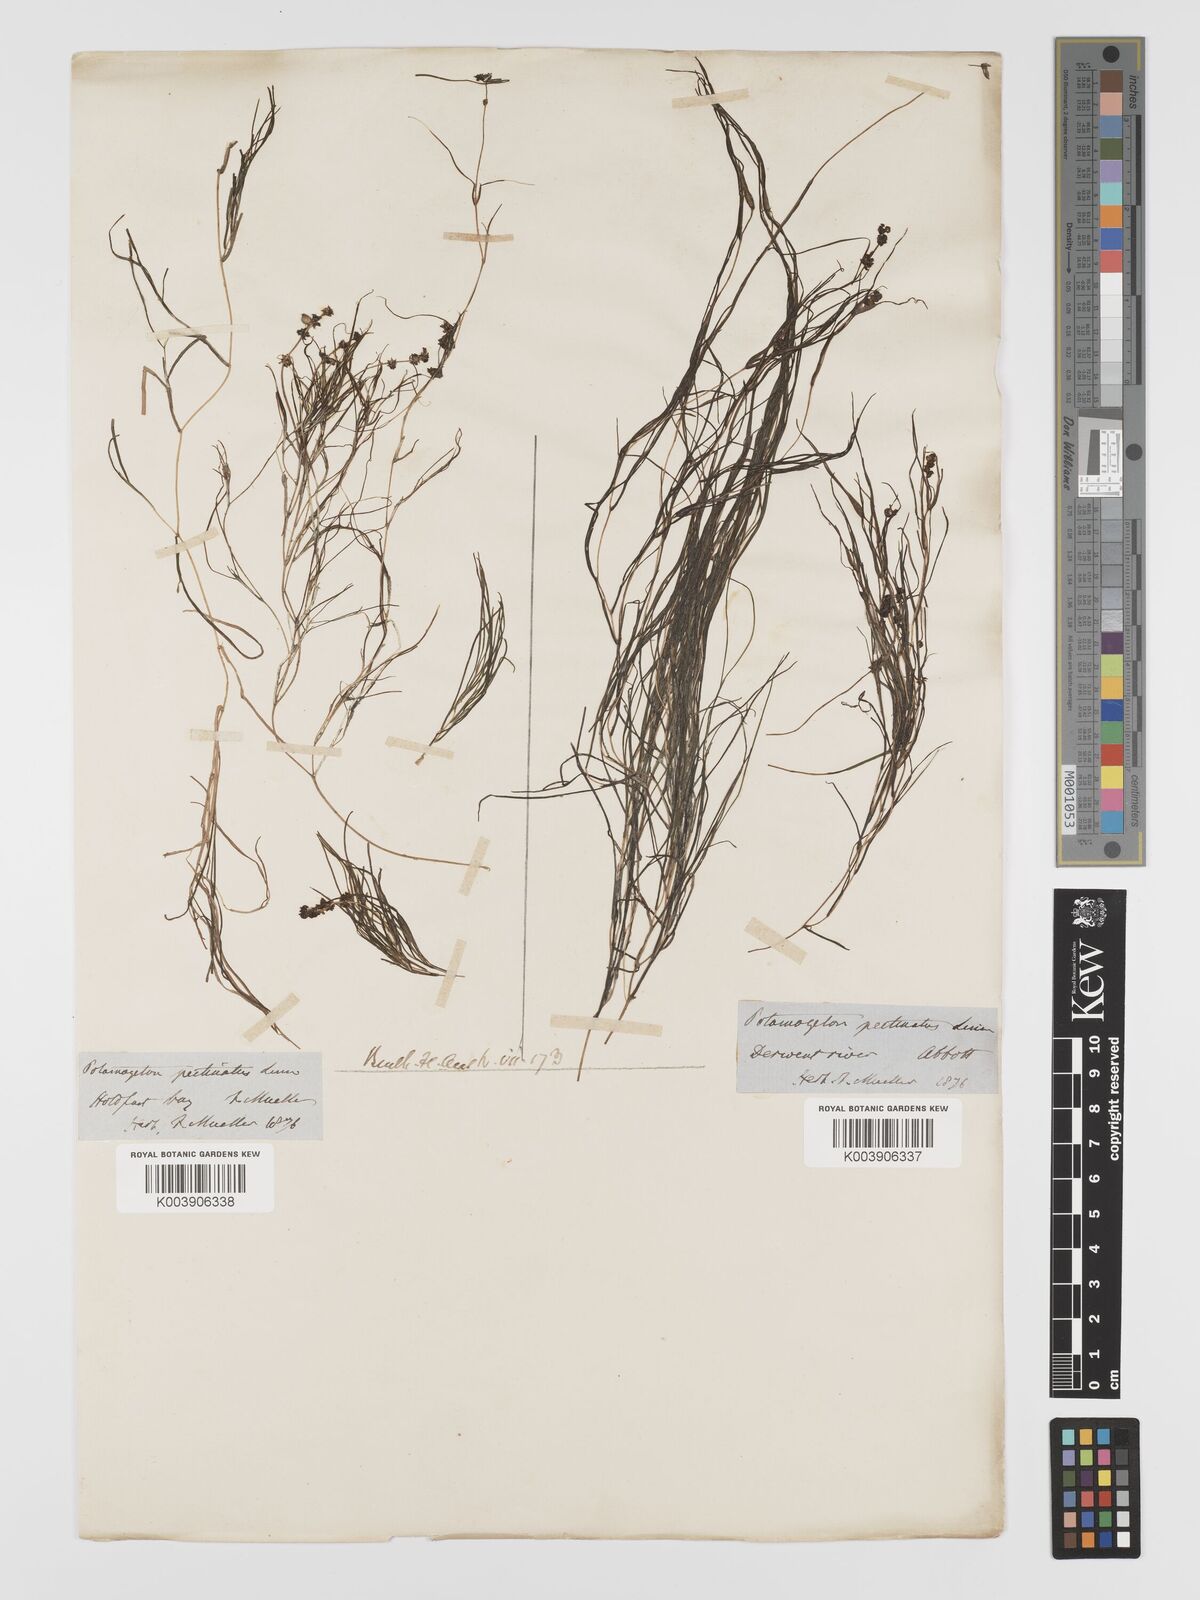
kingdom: Plantae
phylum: Tracheophyta
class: Liliopsida
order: Alismatales
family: Potamogetonaceae
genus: Stuckenia
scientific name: Stuckenia pectinata
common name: Sago pondweed
